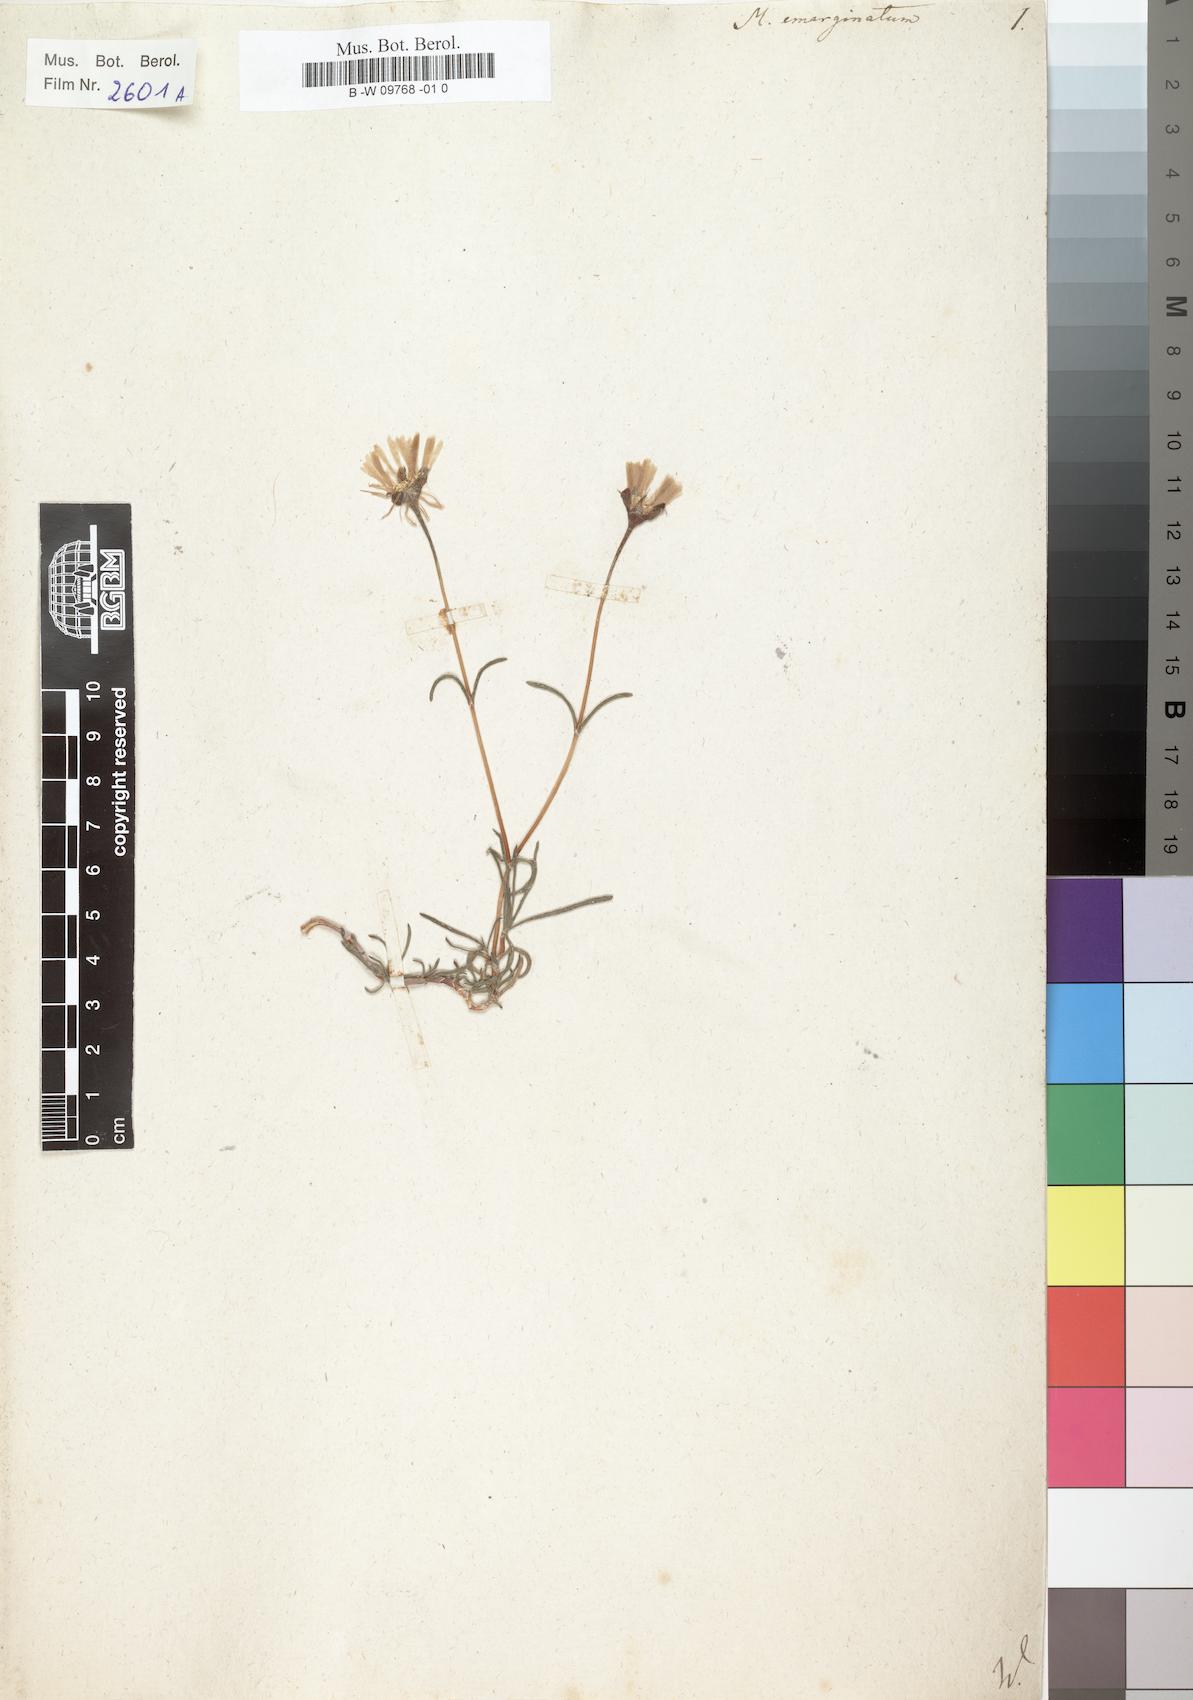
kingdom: Plantae
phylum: Tracheophyta
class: Magnoliopsida
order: Caryophyllales
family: Aizoaceae
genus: Lampranthus
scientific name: Lampranthus emarginatus
